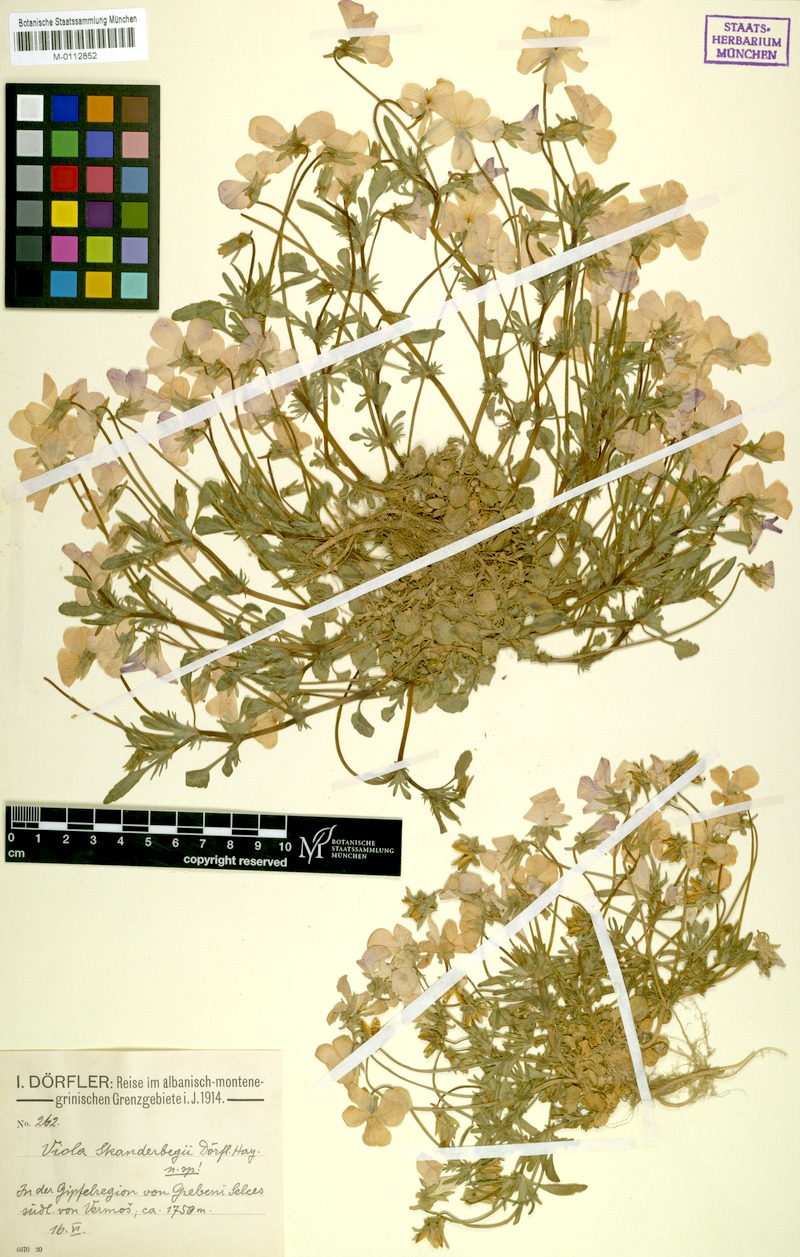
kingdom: Plantae
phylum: Tracheophyta
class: Magnoliopsida
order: Malpighiales
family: Violaceae
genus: Viola
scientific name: Viola skanderbegii
